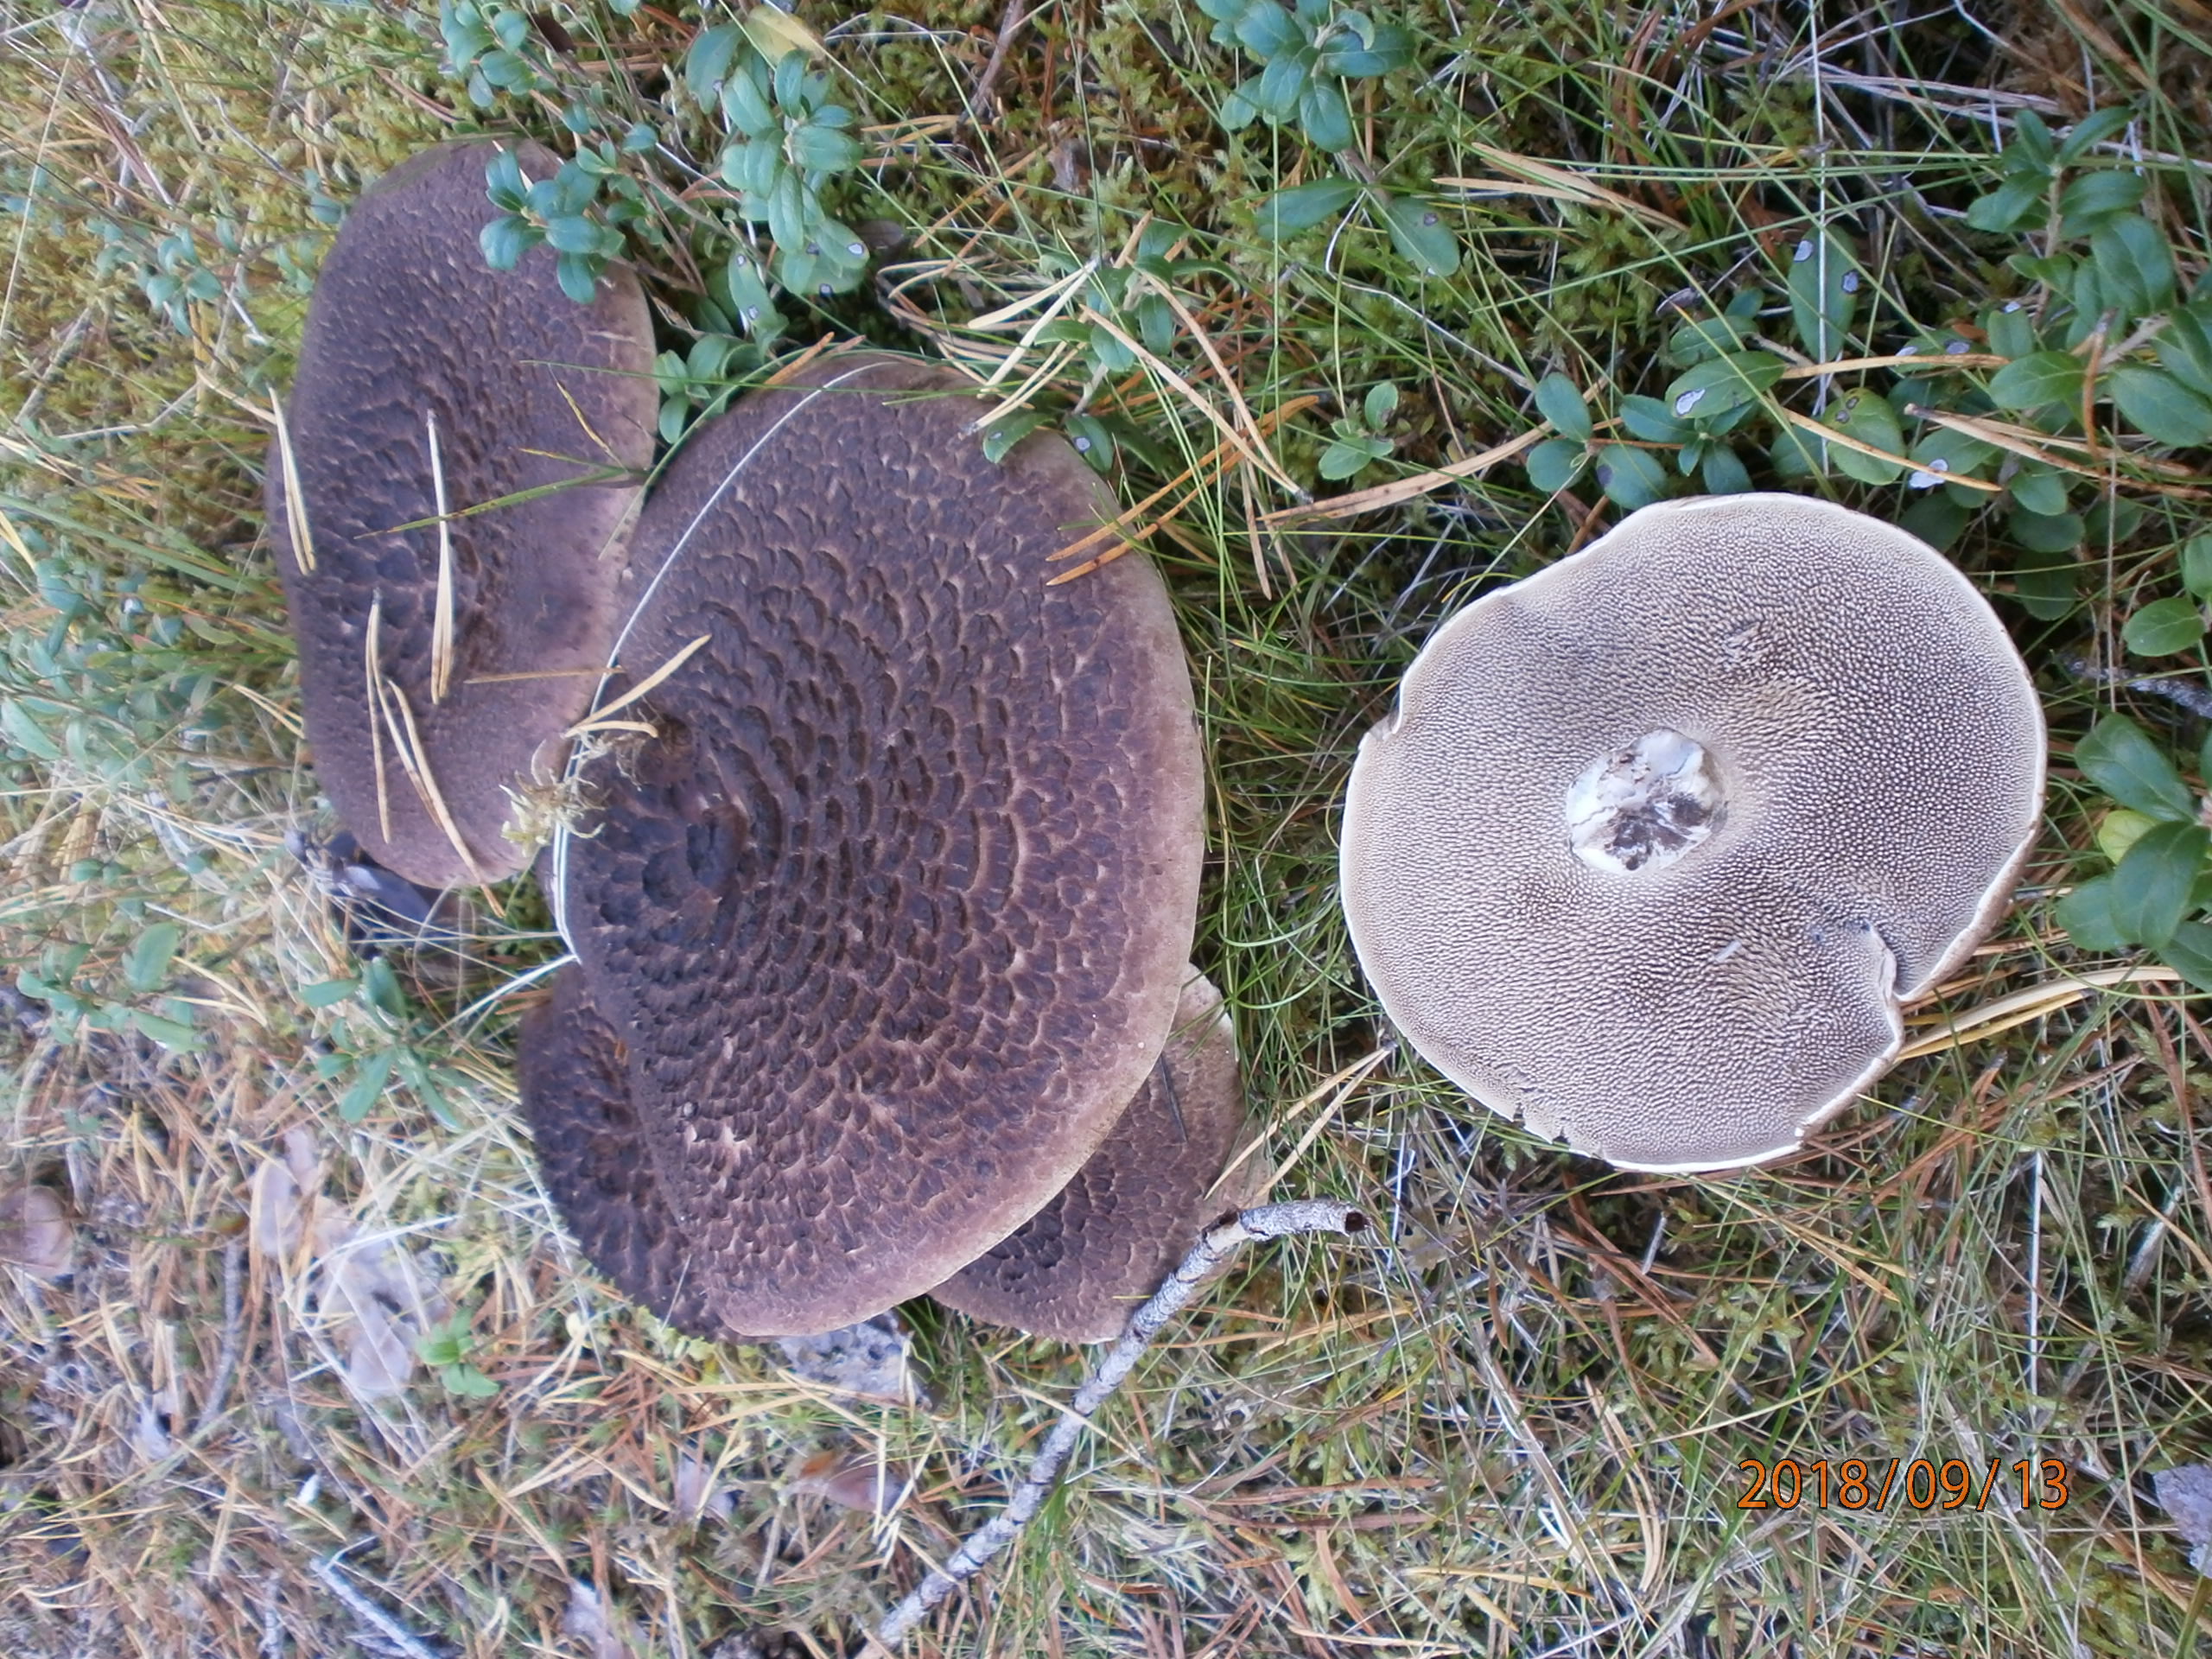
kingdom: Fungi
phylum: Basidiomycota
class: Agaricomycetes
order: Thelephorales
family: Bankeraceae
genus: Sarcodon
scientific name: Sarcodon squamosus
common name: Scaly tooth
